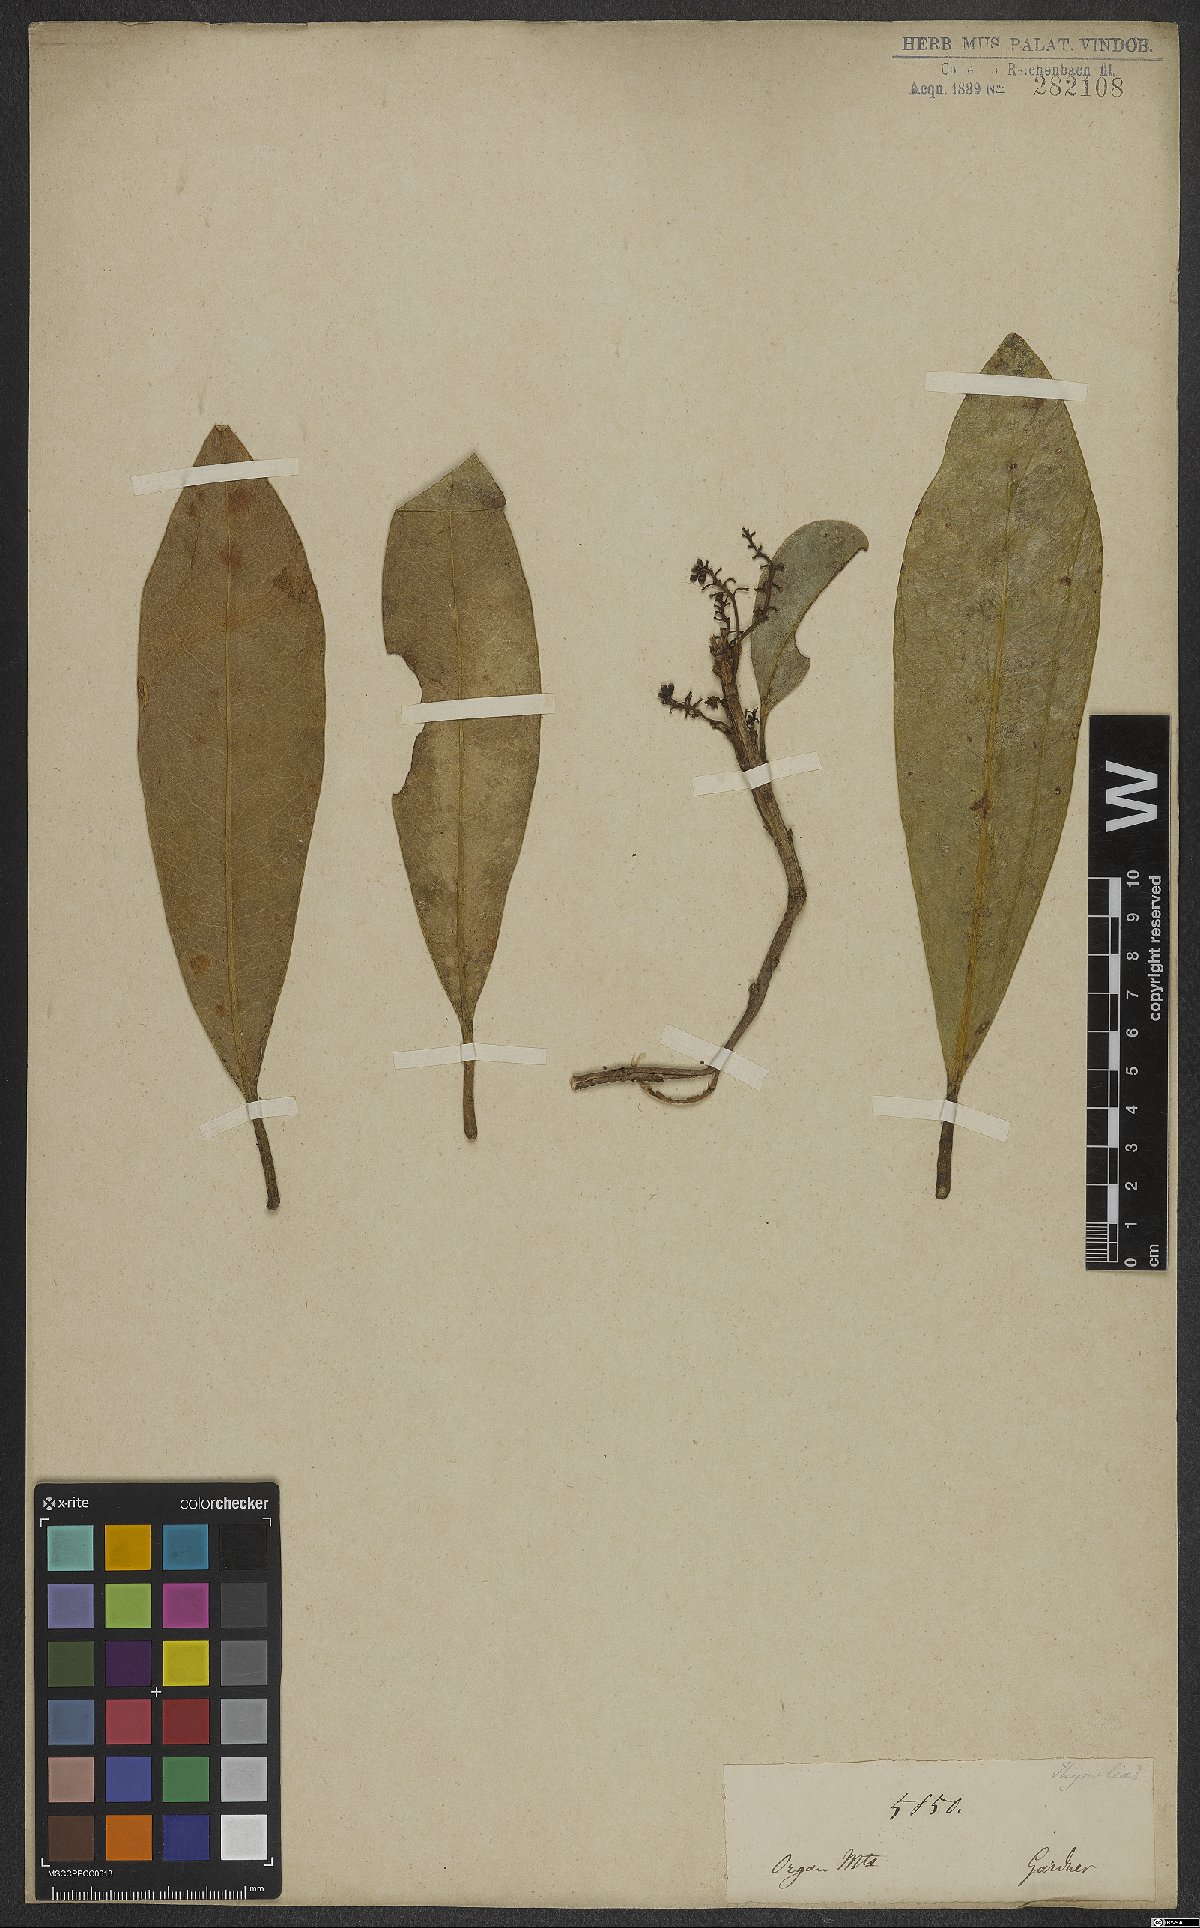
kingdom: Plantae
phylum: Tracheophyta
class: Magnoliopsida
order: Malvales
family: Thymelaeaceae
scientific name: Thymelaeaceae
